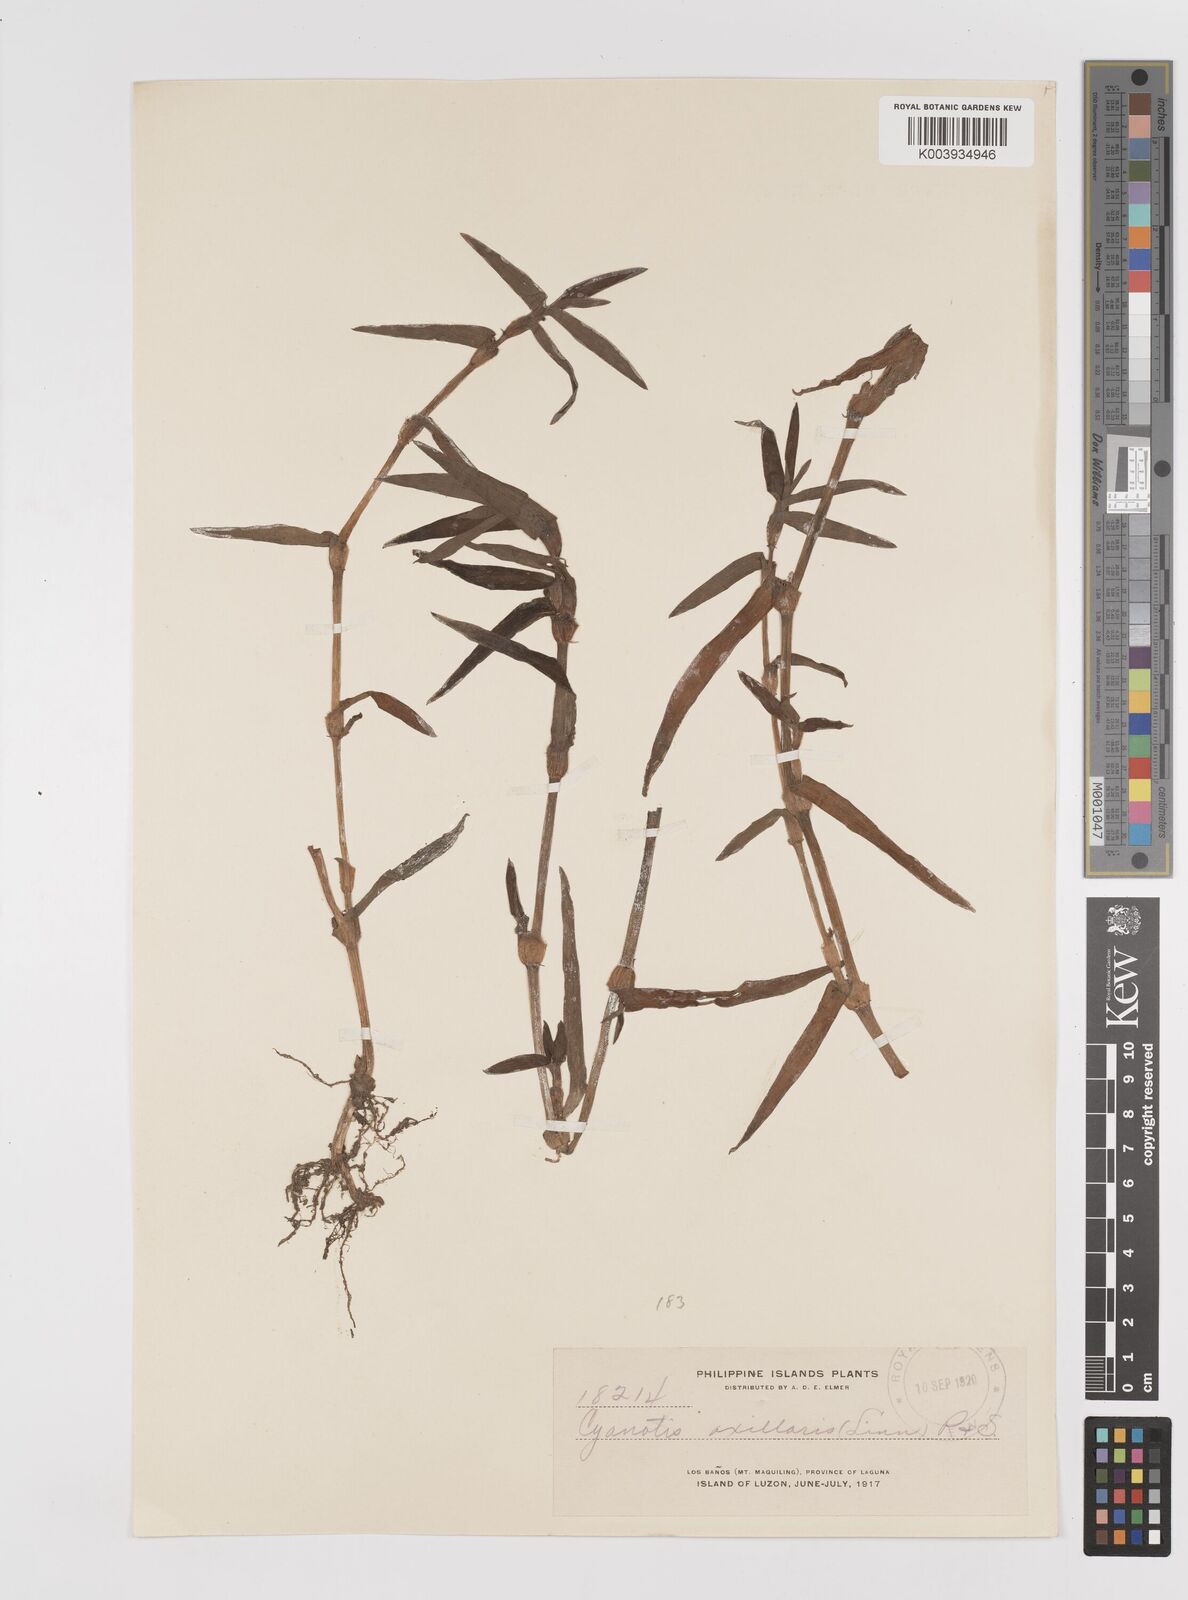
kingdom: Plantae
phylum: Tracheophyta
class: Liliopsida
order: Commelinales
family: Commelinaceae
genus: Cyanotis
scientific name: Cyanotis axillaris
